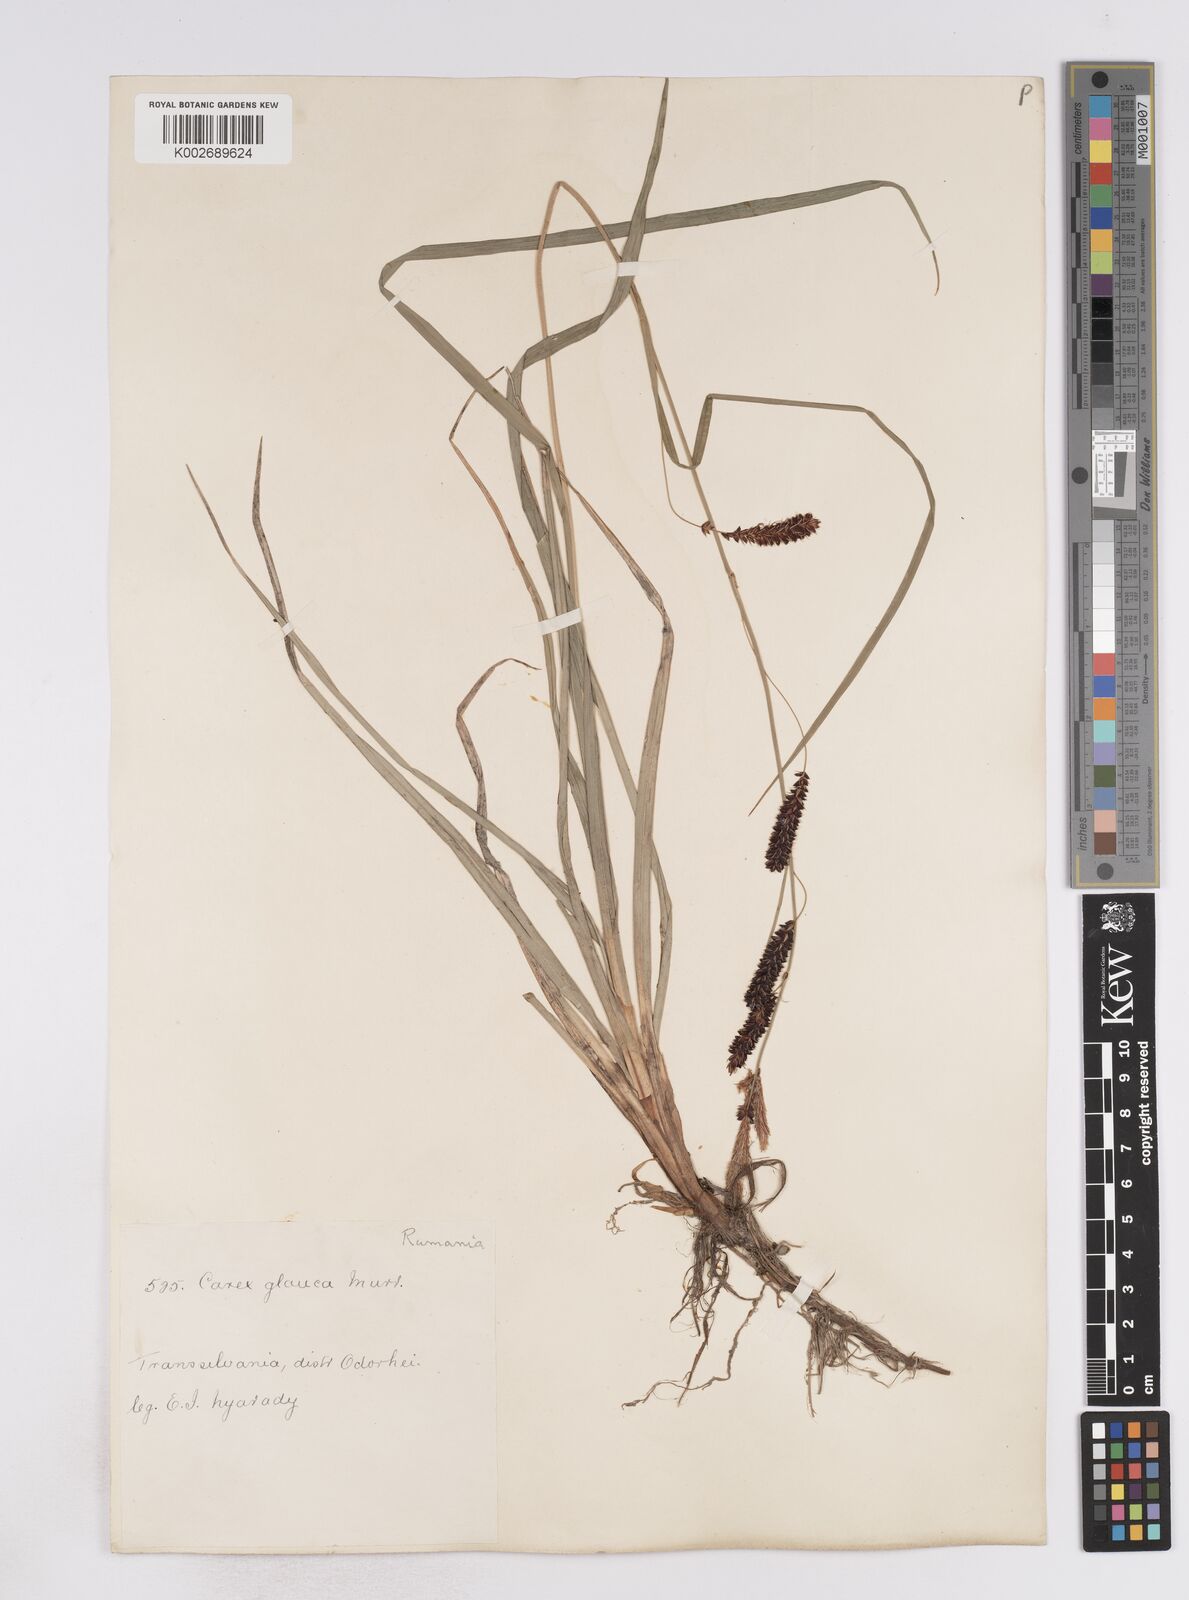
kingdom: Plantae
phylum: Tracheophyta
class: Liliopsida
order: Poales
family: Cyperaceae
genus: Carex
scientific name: Carex flacca
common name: Glaucous sedge
